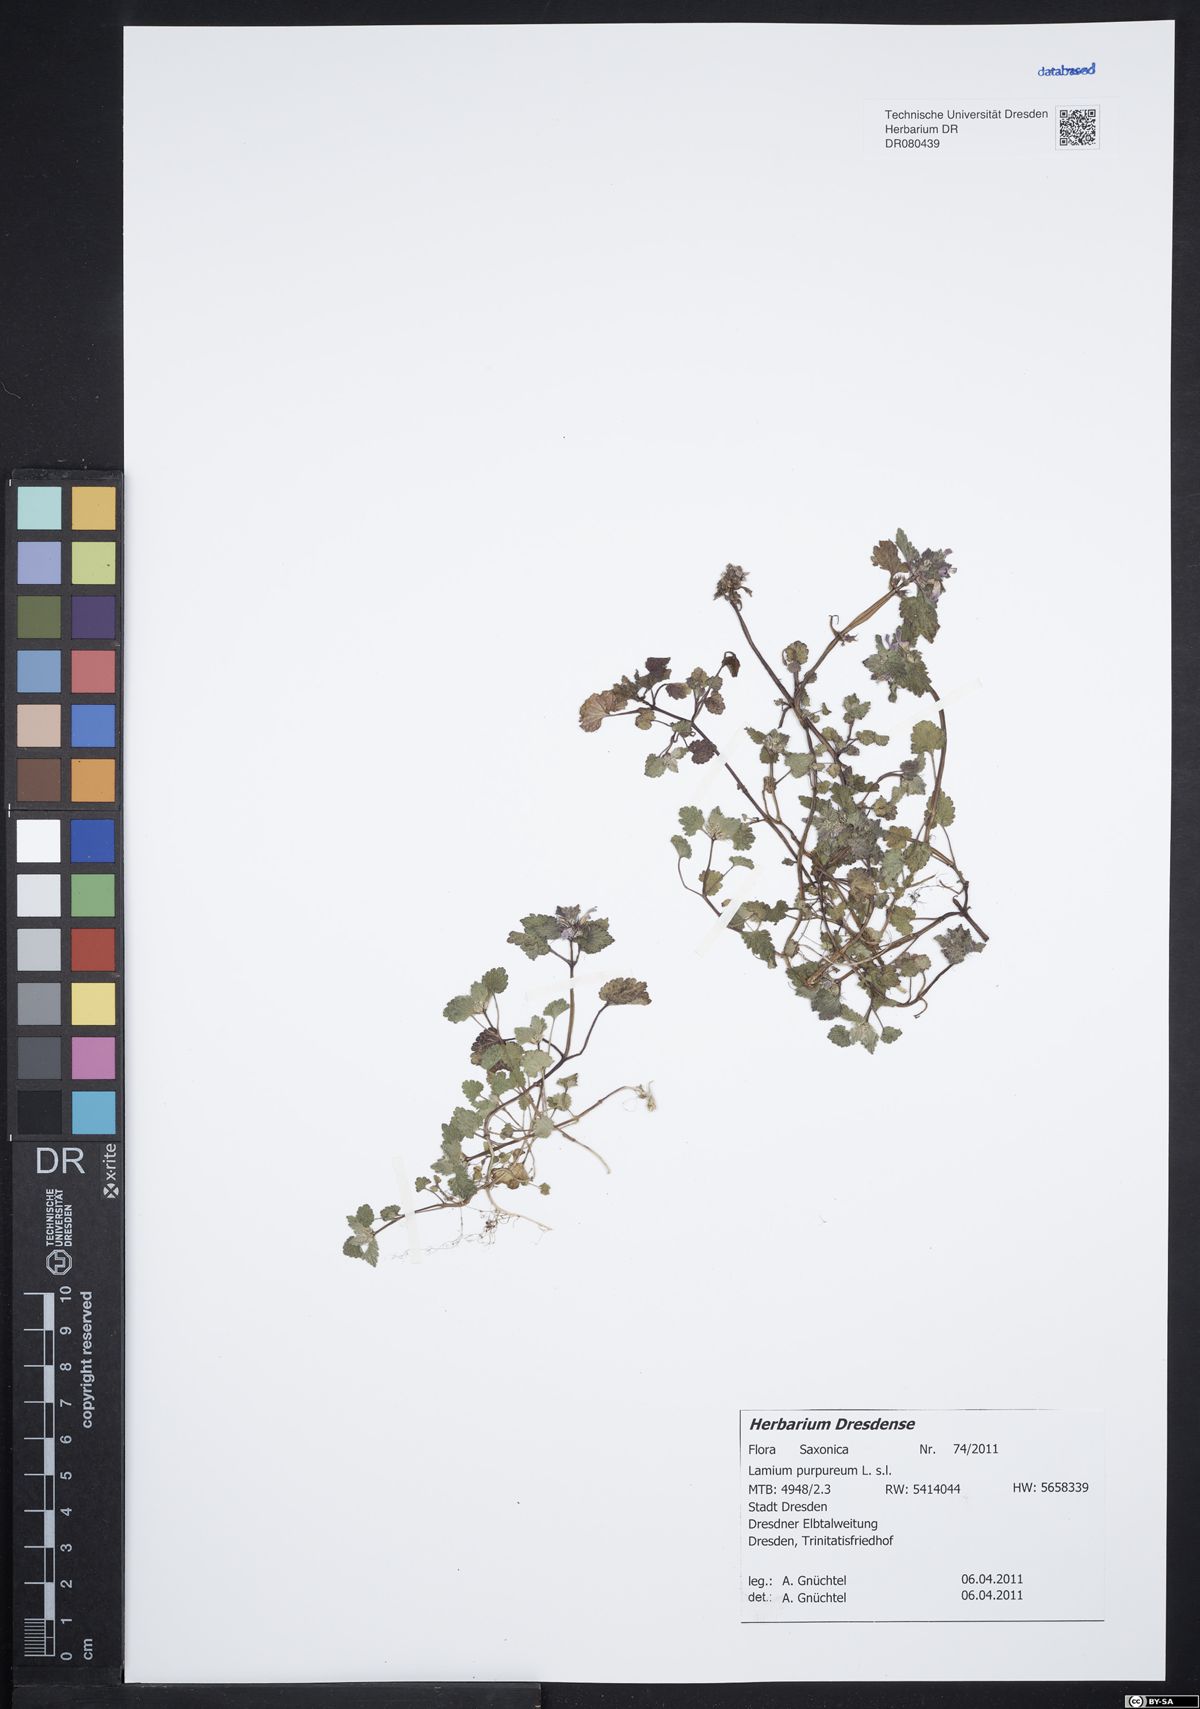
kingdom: Plantae
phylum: Tracheophyta
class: Magnoliopsida
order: Lamiales
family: Lamiaceae
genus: Lamium
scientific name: Lamium purpureum
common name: Red dead-nettle
